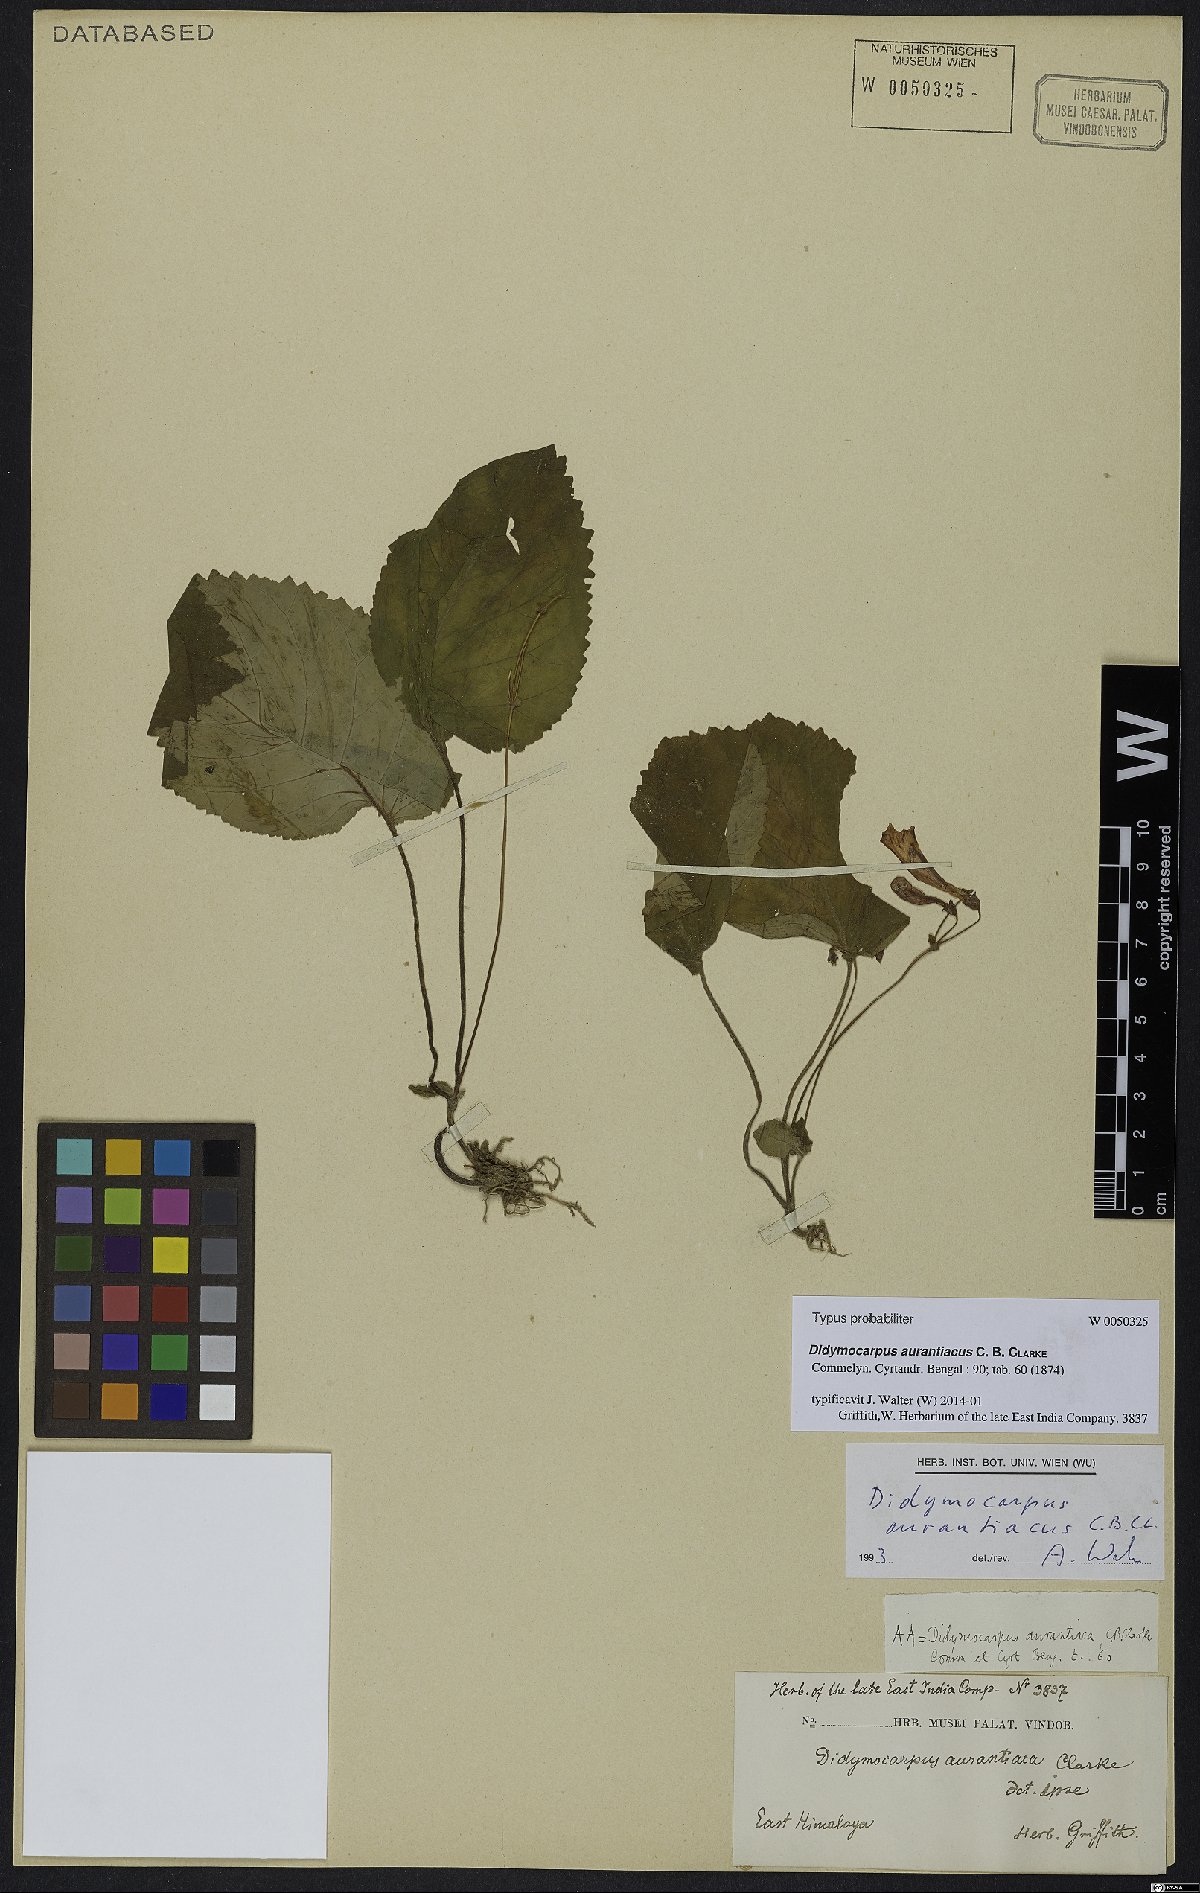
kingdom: Plantae
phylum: Tracheophyta
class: Magnoliopsida
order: Lamiales
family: Gesneriaceae
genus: Didymocarpus
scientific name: Didymocarpus aurantiacus
